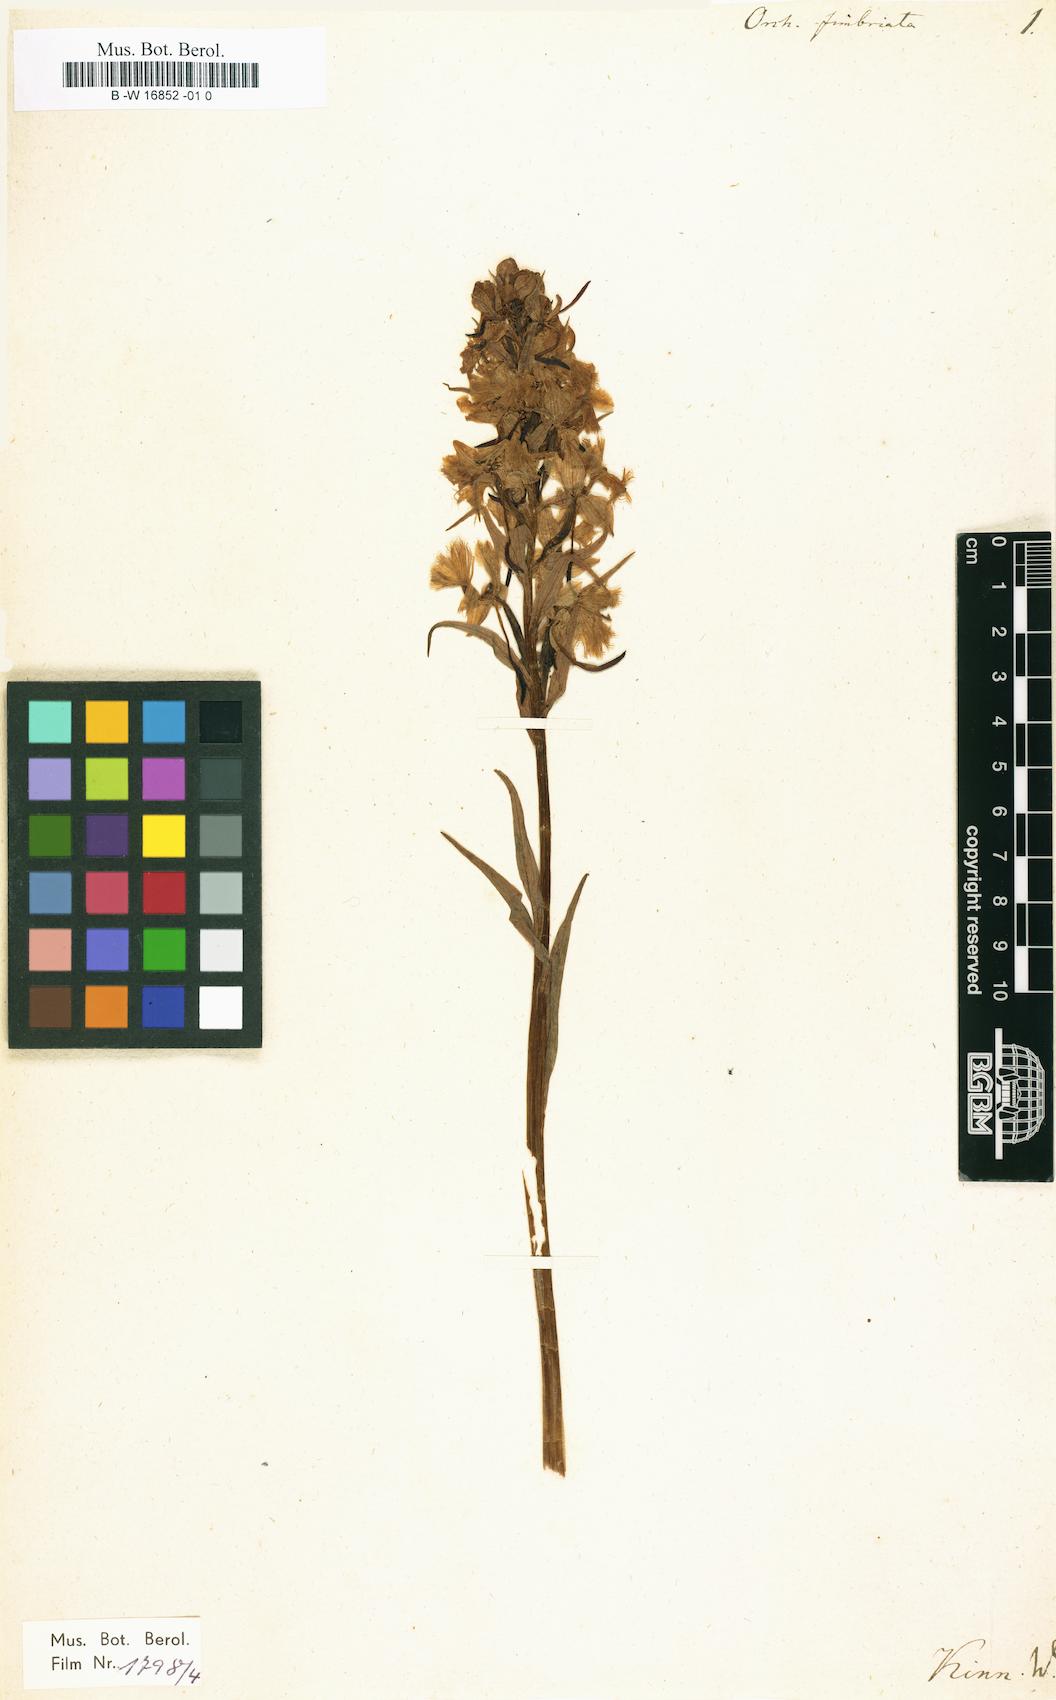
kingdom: Plantae
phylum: Tracheophyta
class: Liliopsida
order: Asparagales
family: Orchidaceae
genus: Orchis
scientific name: Orchis fimbriata
